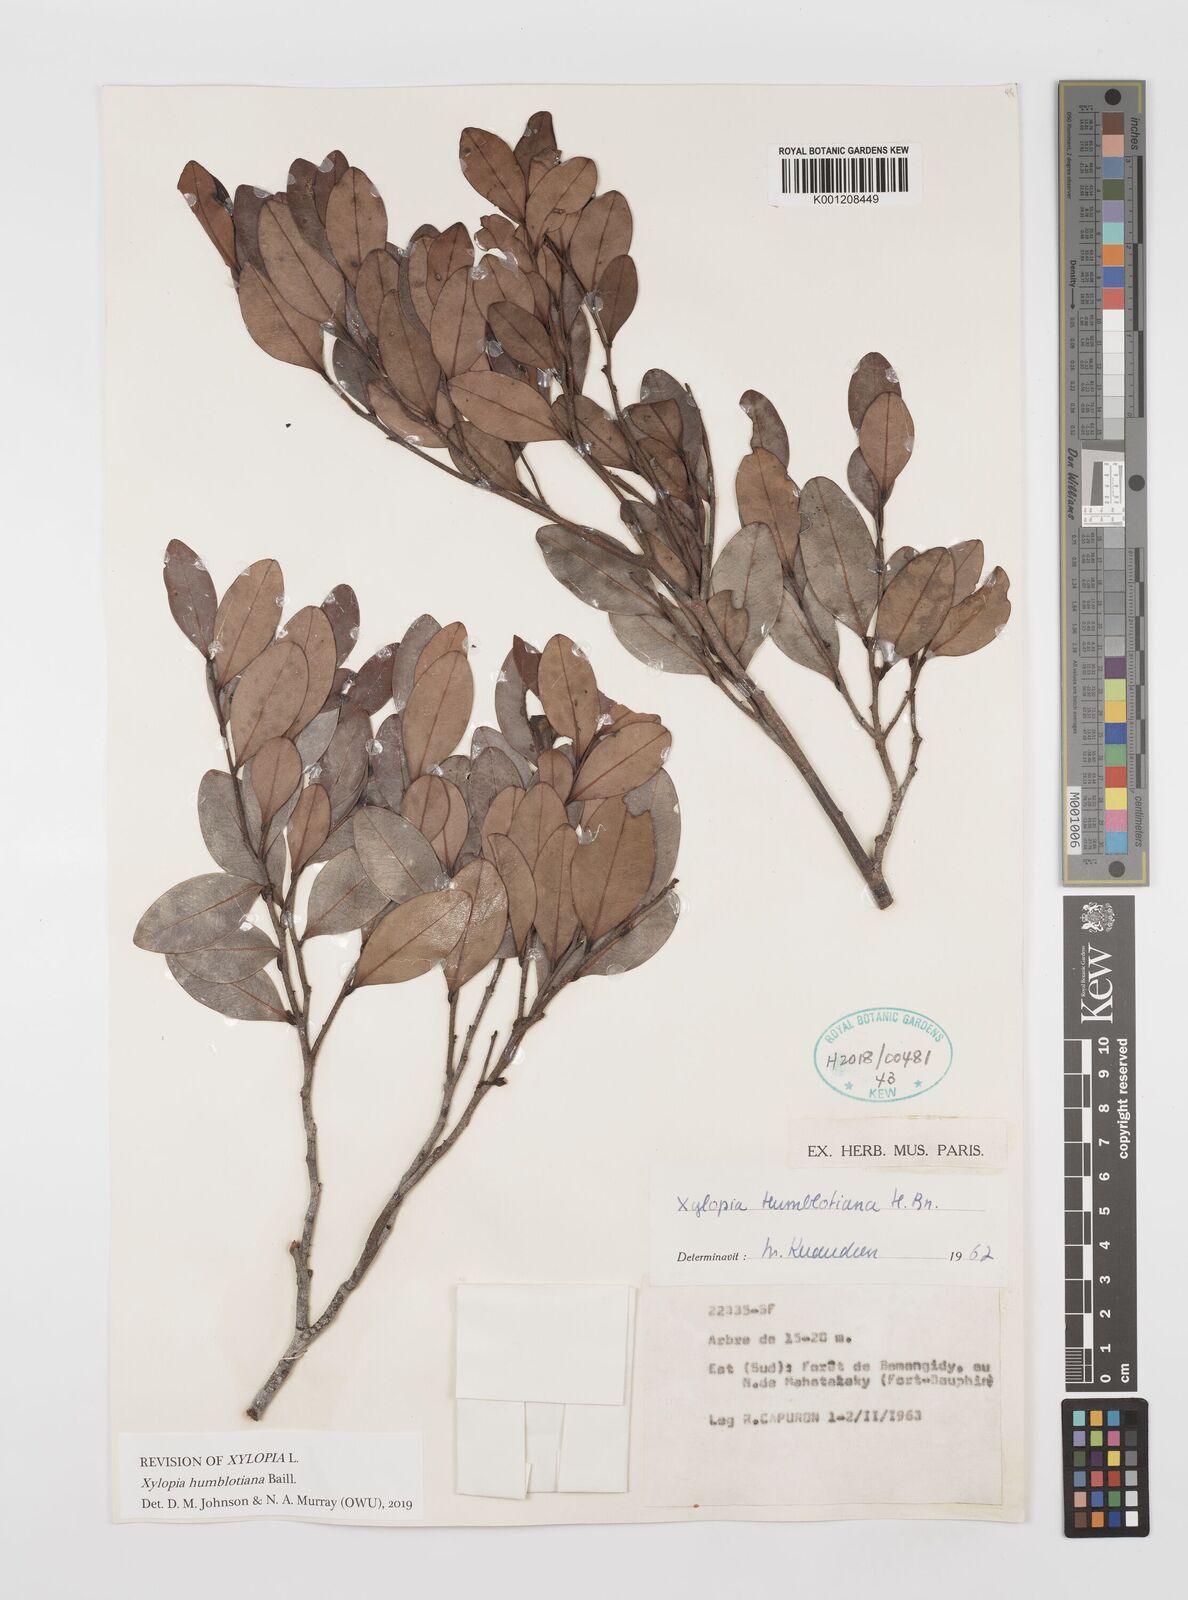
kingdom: Plantae
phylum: Tracheophyta
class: Magnoliopsida
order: Magnoliales
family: Annonaceae
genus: Xylopia
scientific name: Xylopia humblotiana
